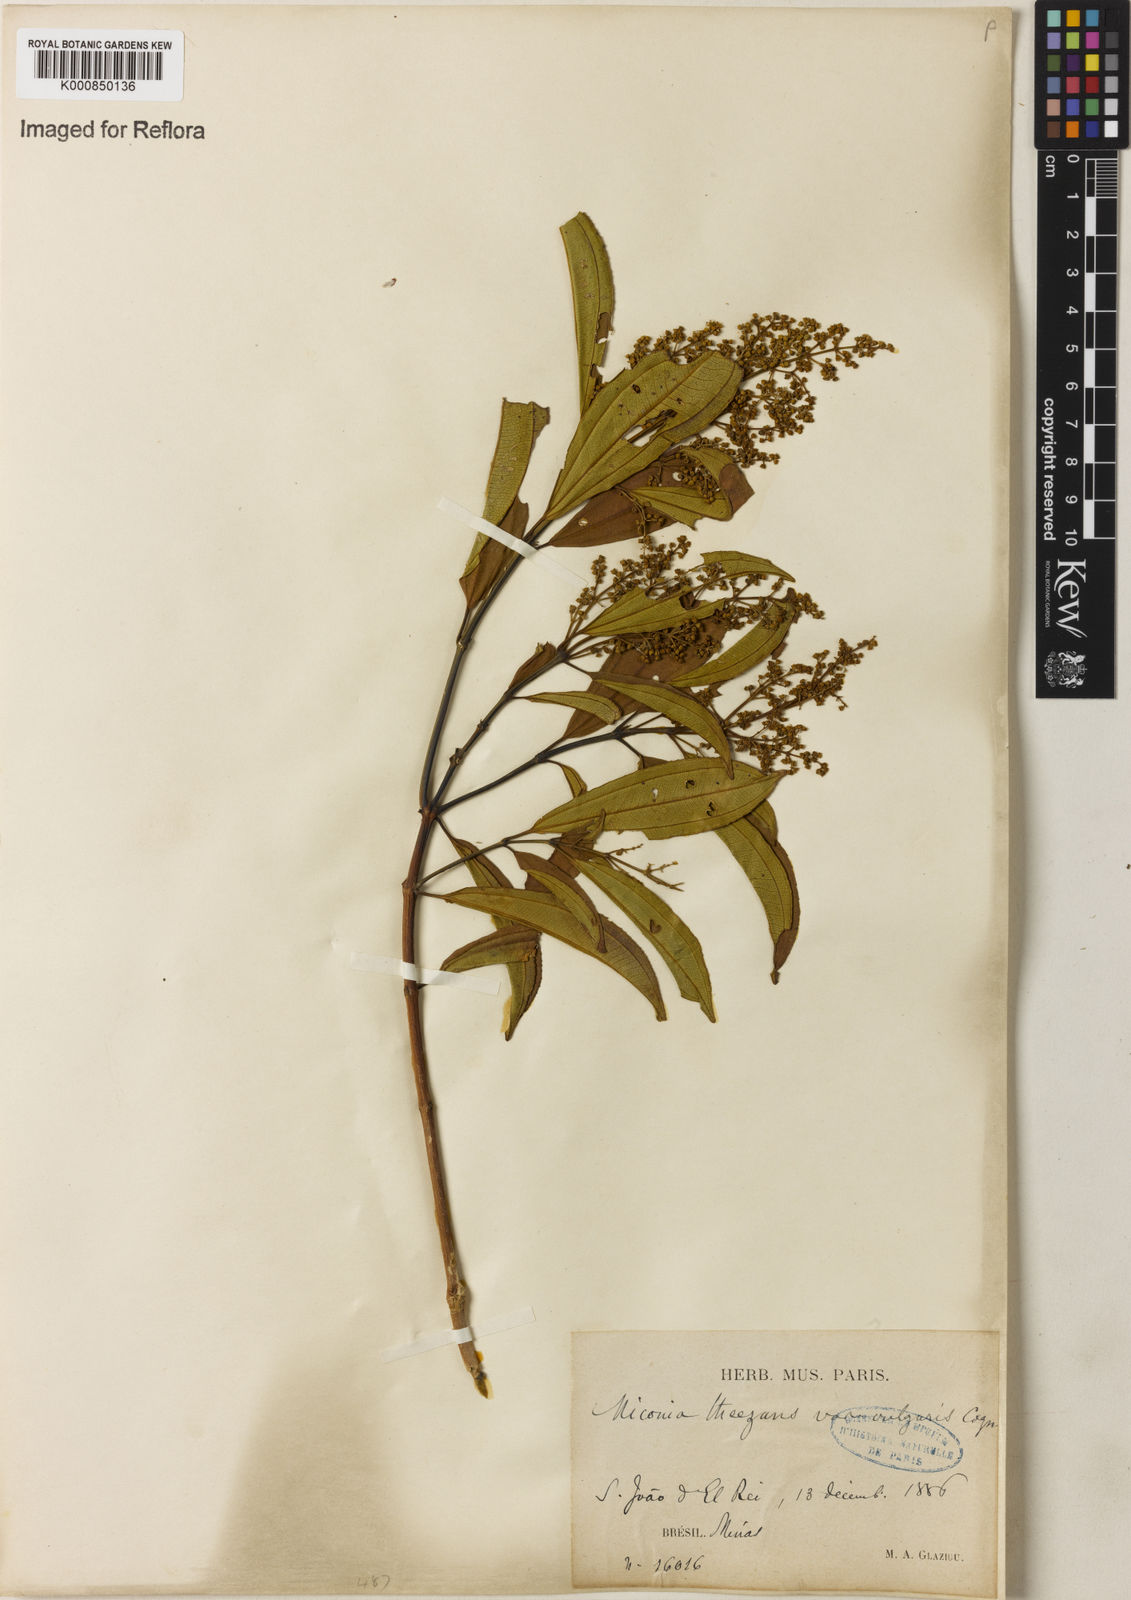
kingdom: Plantae
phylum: Tracheophyta
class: Magnoliopsida
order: Myrtales
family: Melastomataceae
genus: Miconia
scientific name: Miconia
